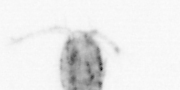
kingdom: Animalia
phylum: Arthropoda
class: Copepoda
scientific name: Copepoda
